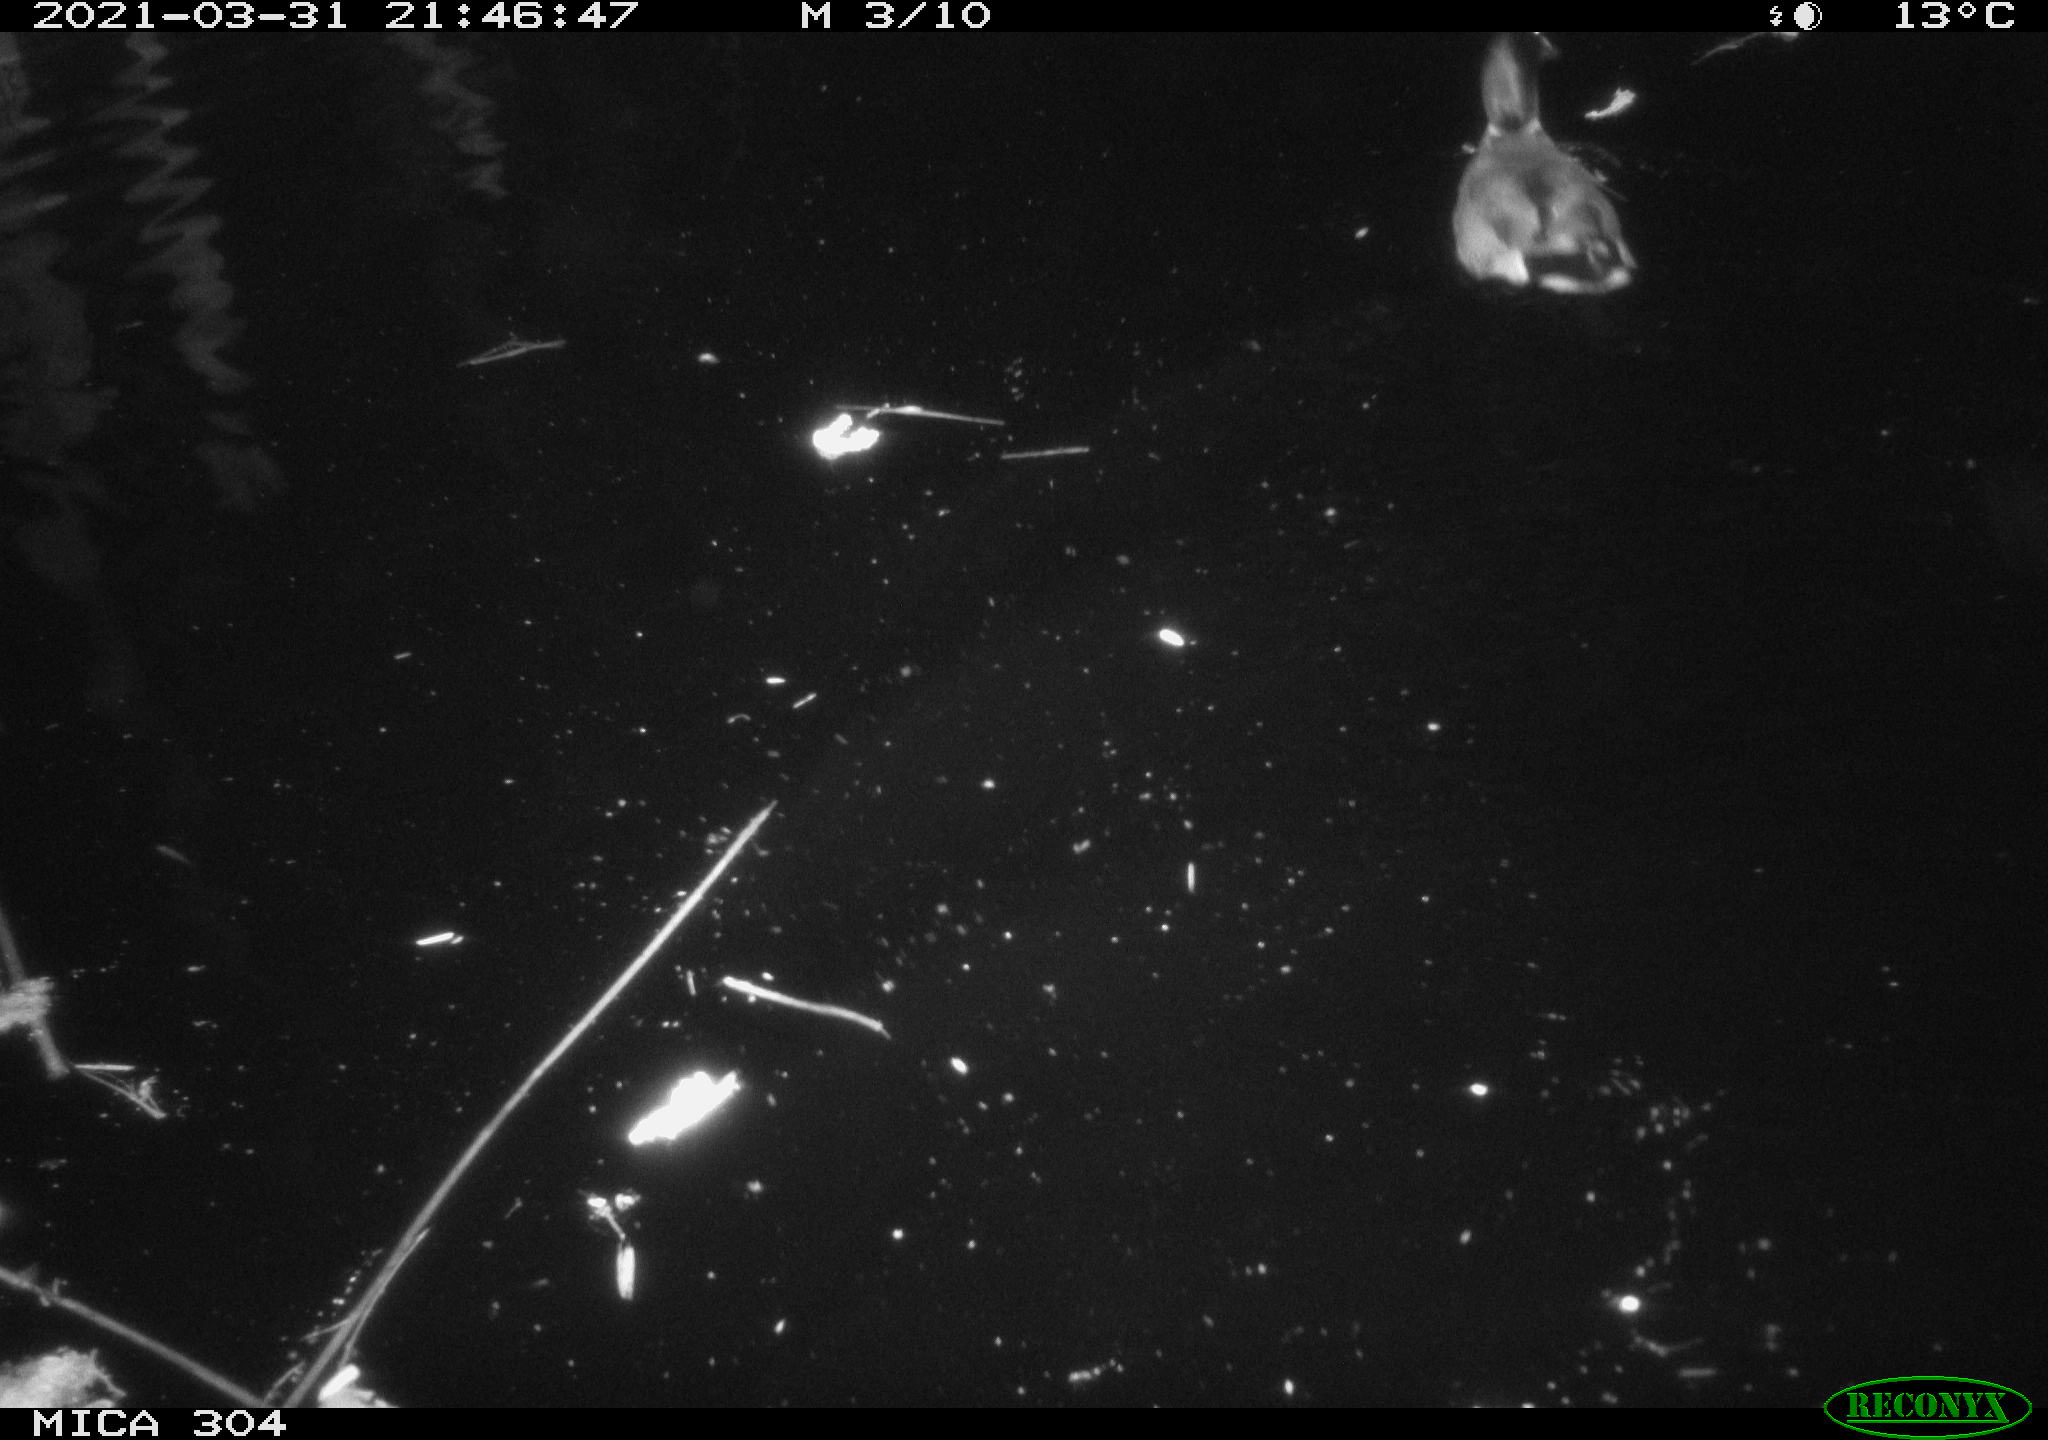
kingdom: Animalia
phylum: Chordata
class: Aves
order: Anseriformes
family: Anatidae
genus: Anas
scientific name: Anas platyrhynchos
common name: Mallard
